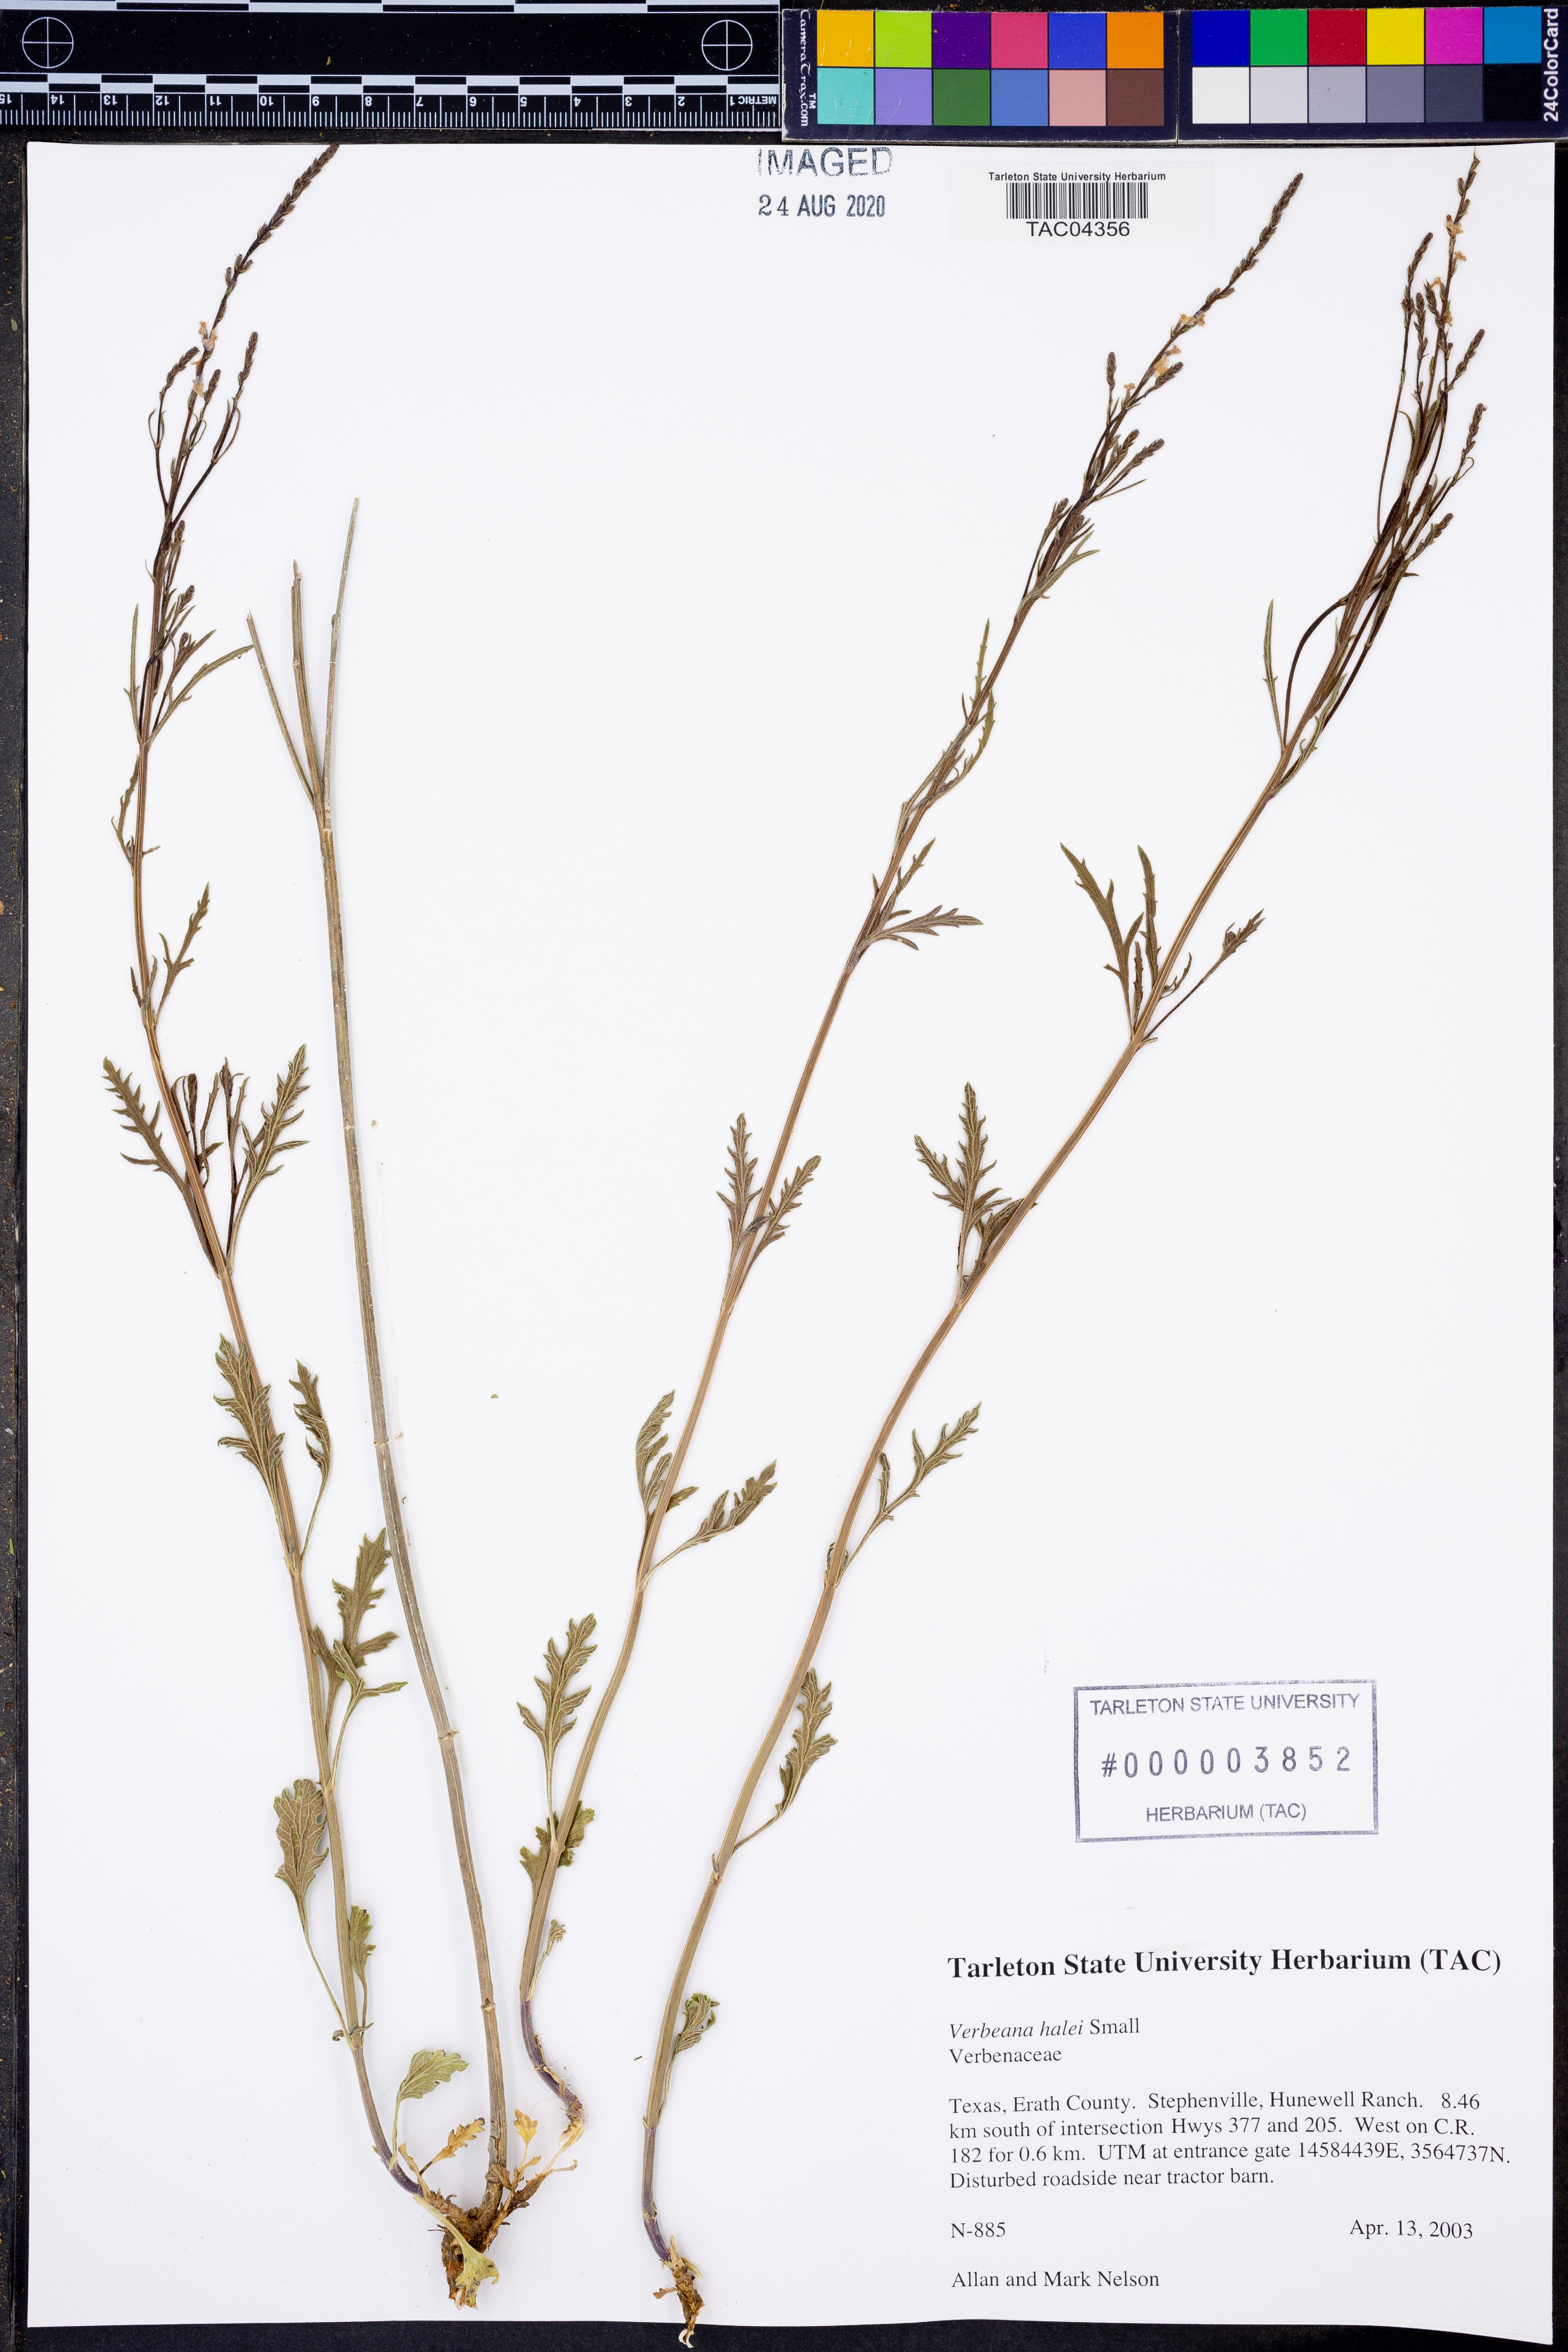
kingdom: Plantae
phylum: Tracheophyta
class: Magnoliopsida
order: Lamiales
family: Verbenaceae
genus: Verbena
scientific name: Verbena halei
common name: Texas vervain
